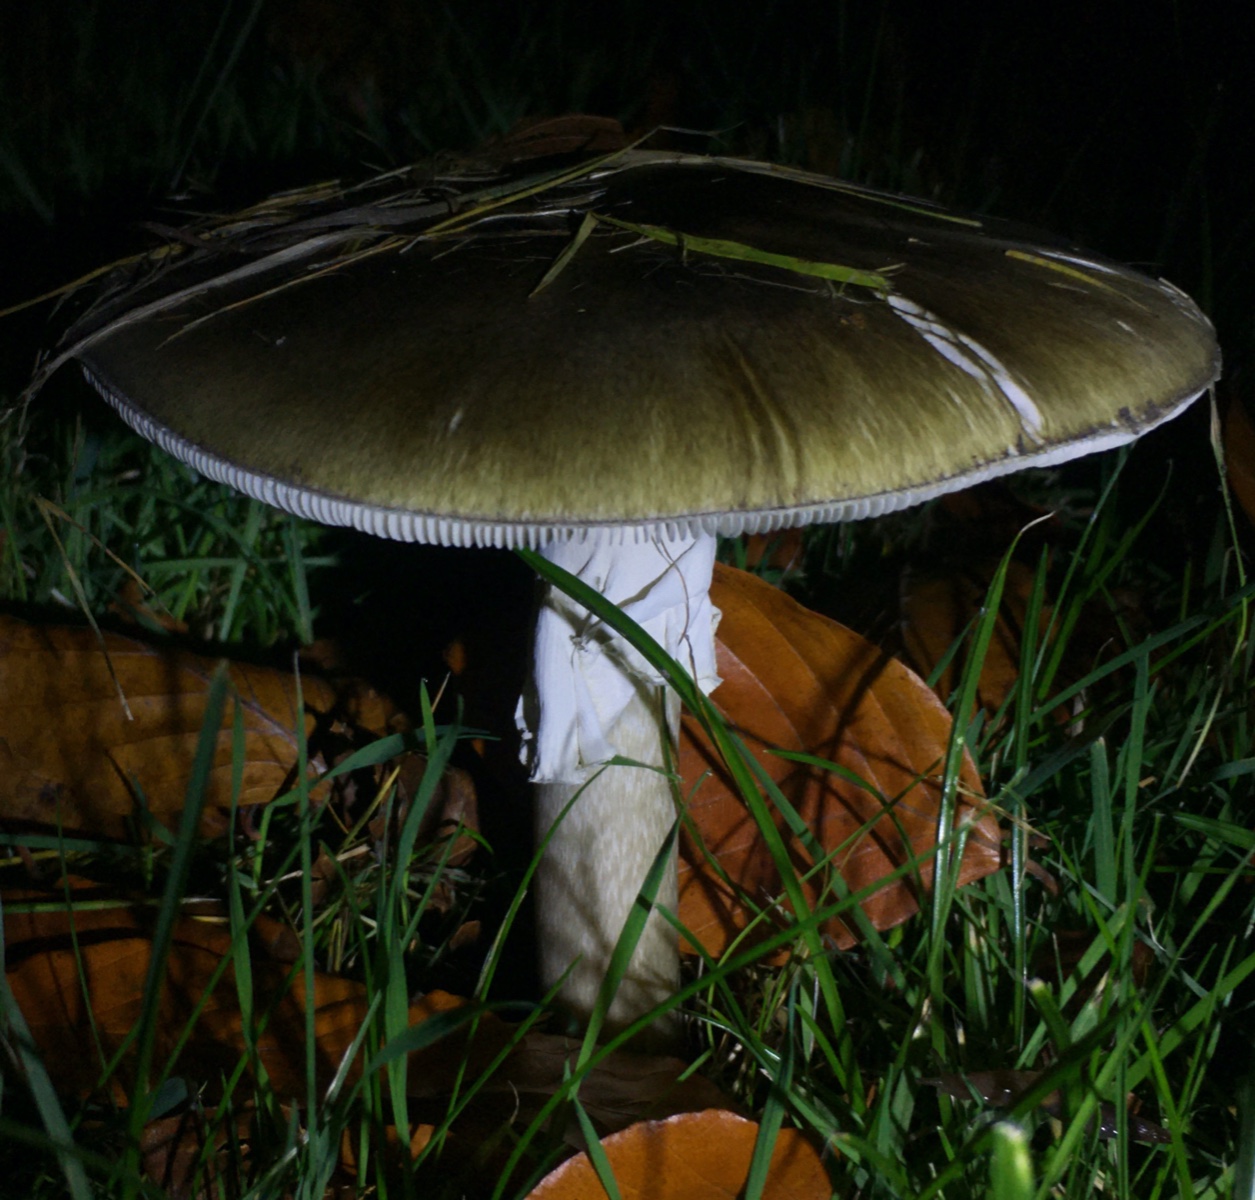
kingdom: Fungi
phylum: Basidiomycota
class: Agaricomycetes
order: Agaricales
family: Amanitaceae
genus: Amanita
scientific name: Amanita phalloides
